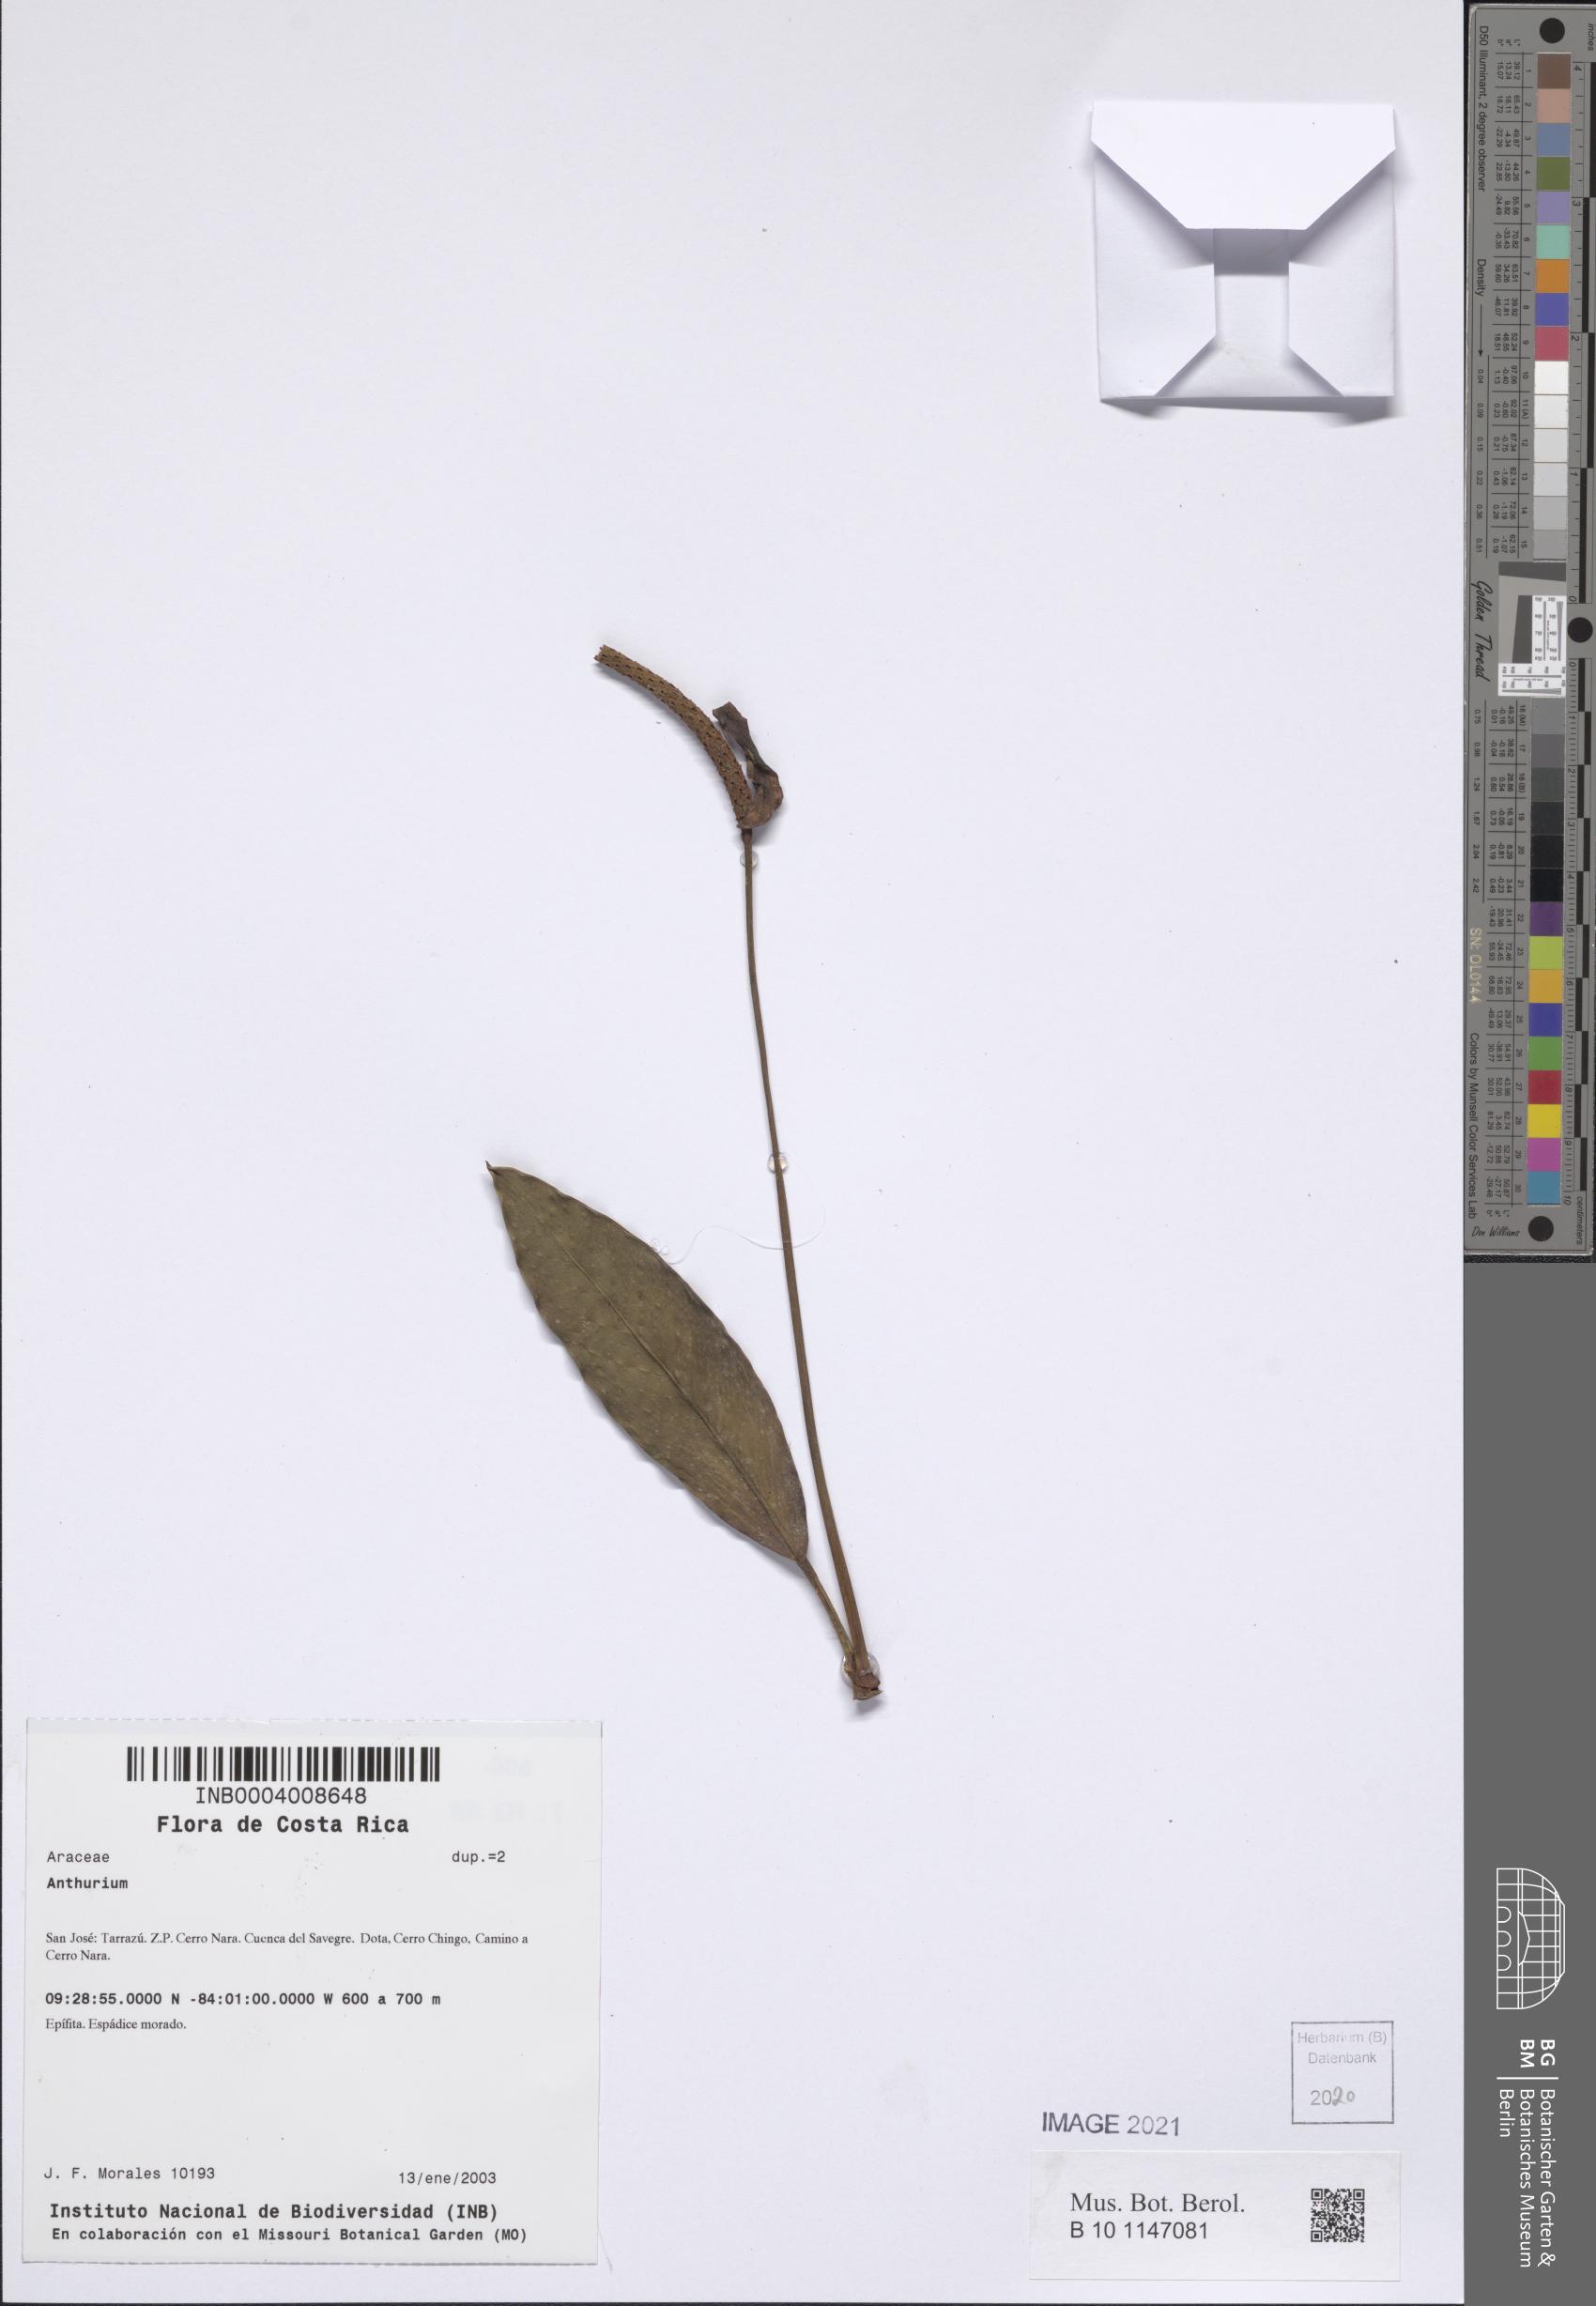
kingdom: Plantae
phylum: Tracheophyta
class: Liliopsida
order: Alismatales
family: Araceae
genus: Anthurium
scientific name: Anthurium
